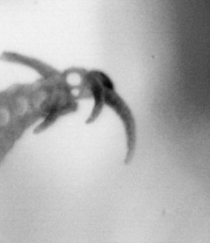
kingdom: Animalia
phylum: Annelida
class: Polychaeta
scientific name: Polychaeta
